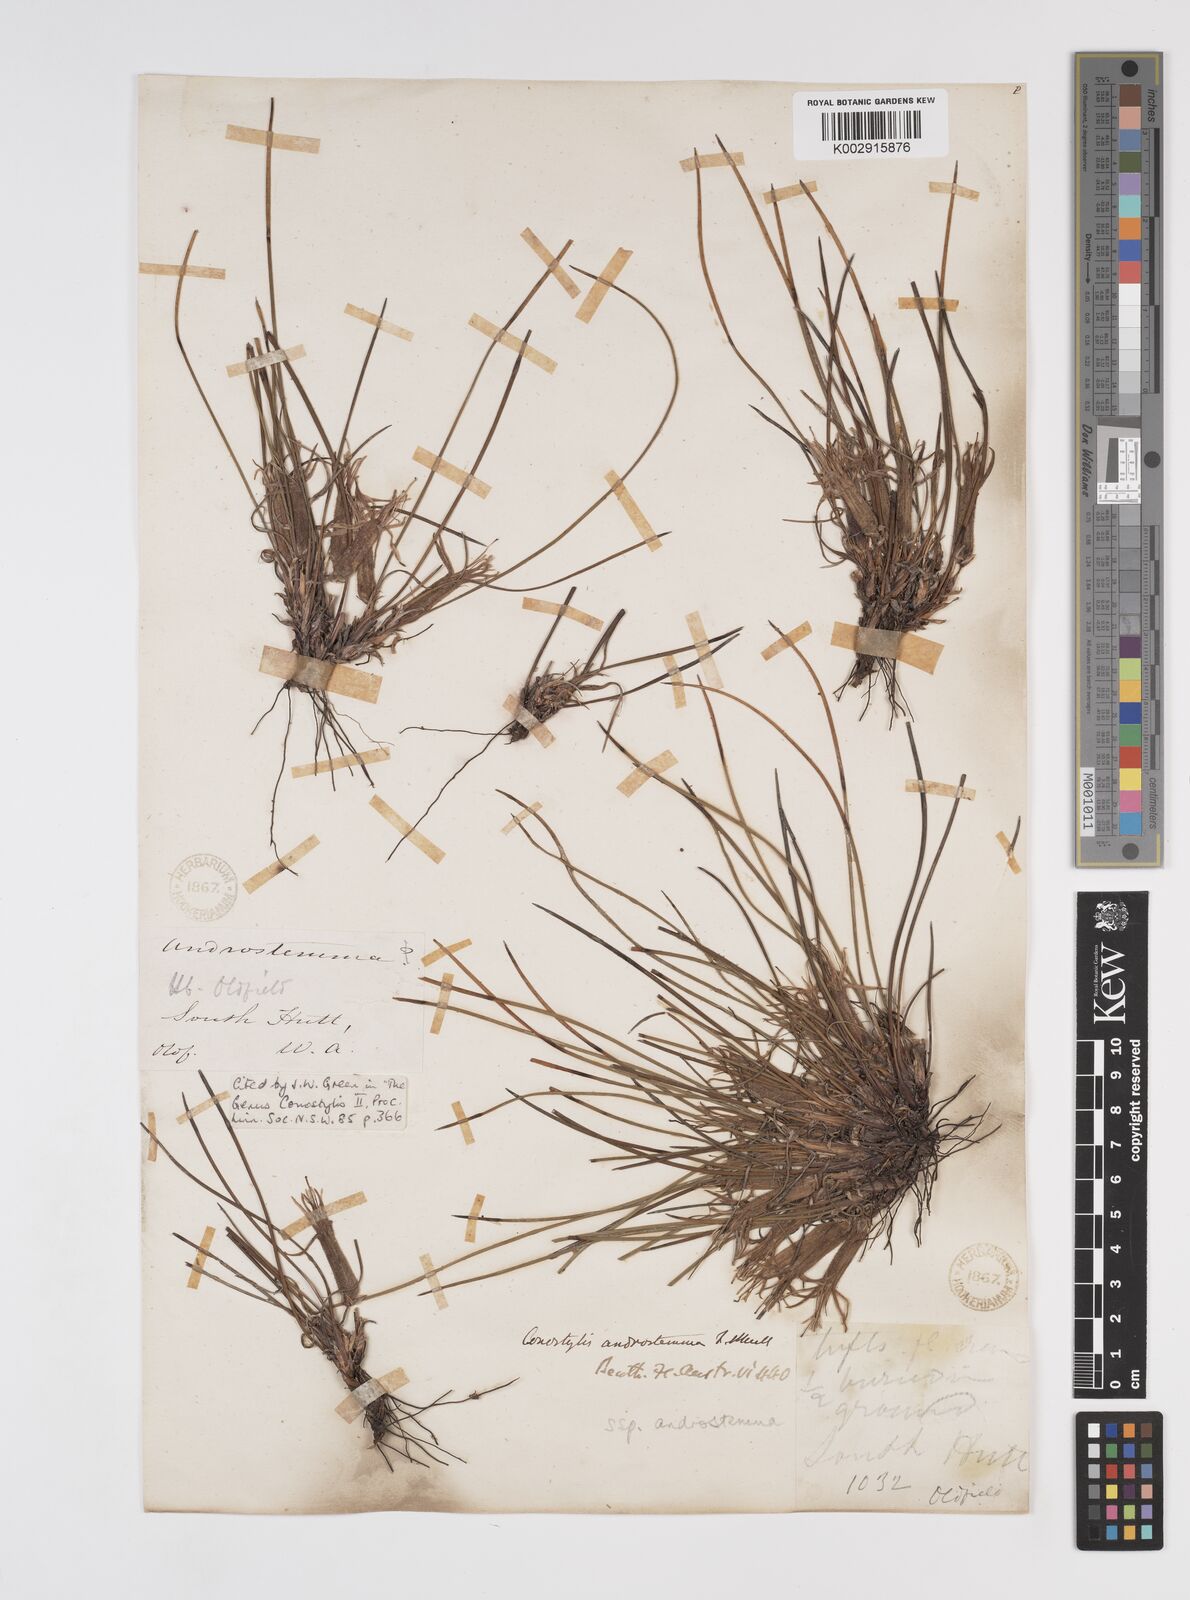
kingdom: Plantae
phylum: Tracheophyta
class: Liliopsida
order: Commelinales
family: Haemodoraceae
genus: Conostylis
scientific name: Conostylis androstemma
